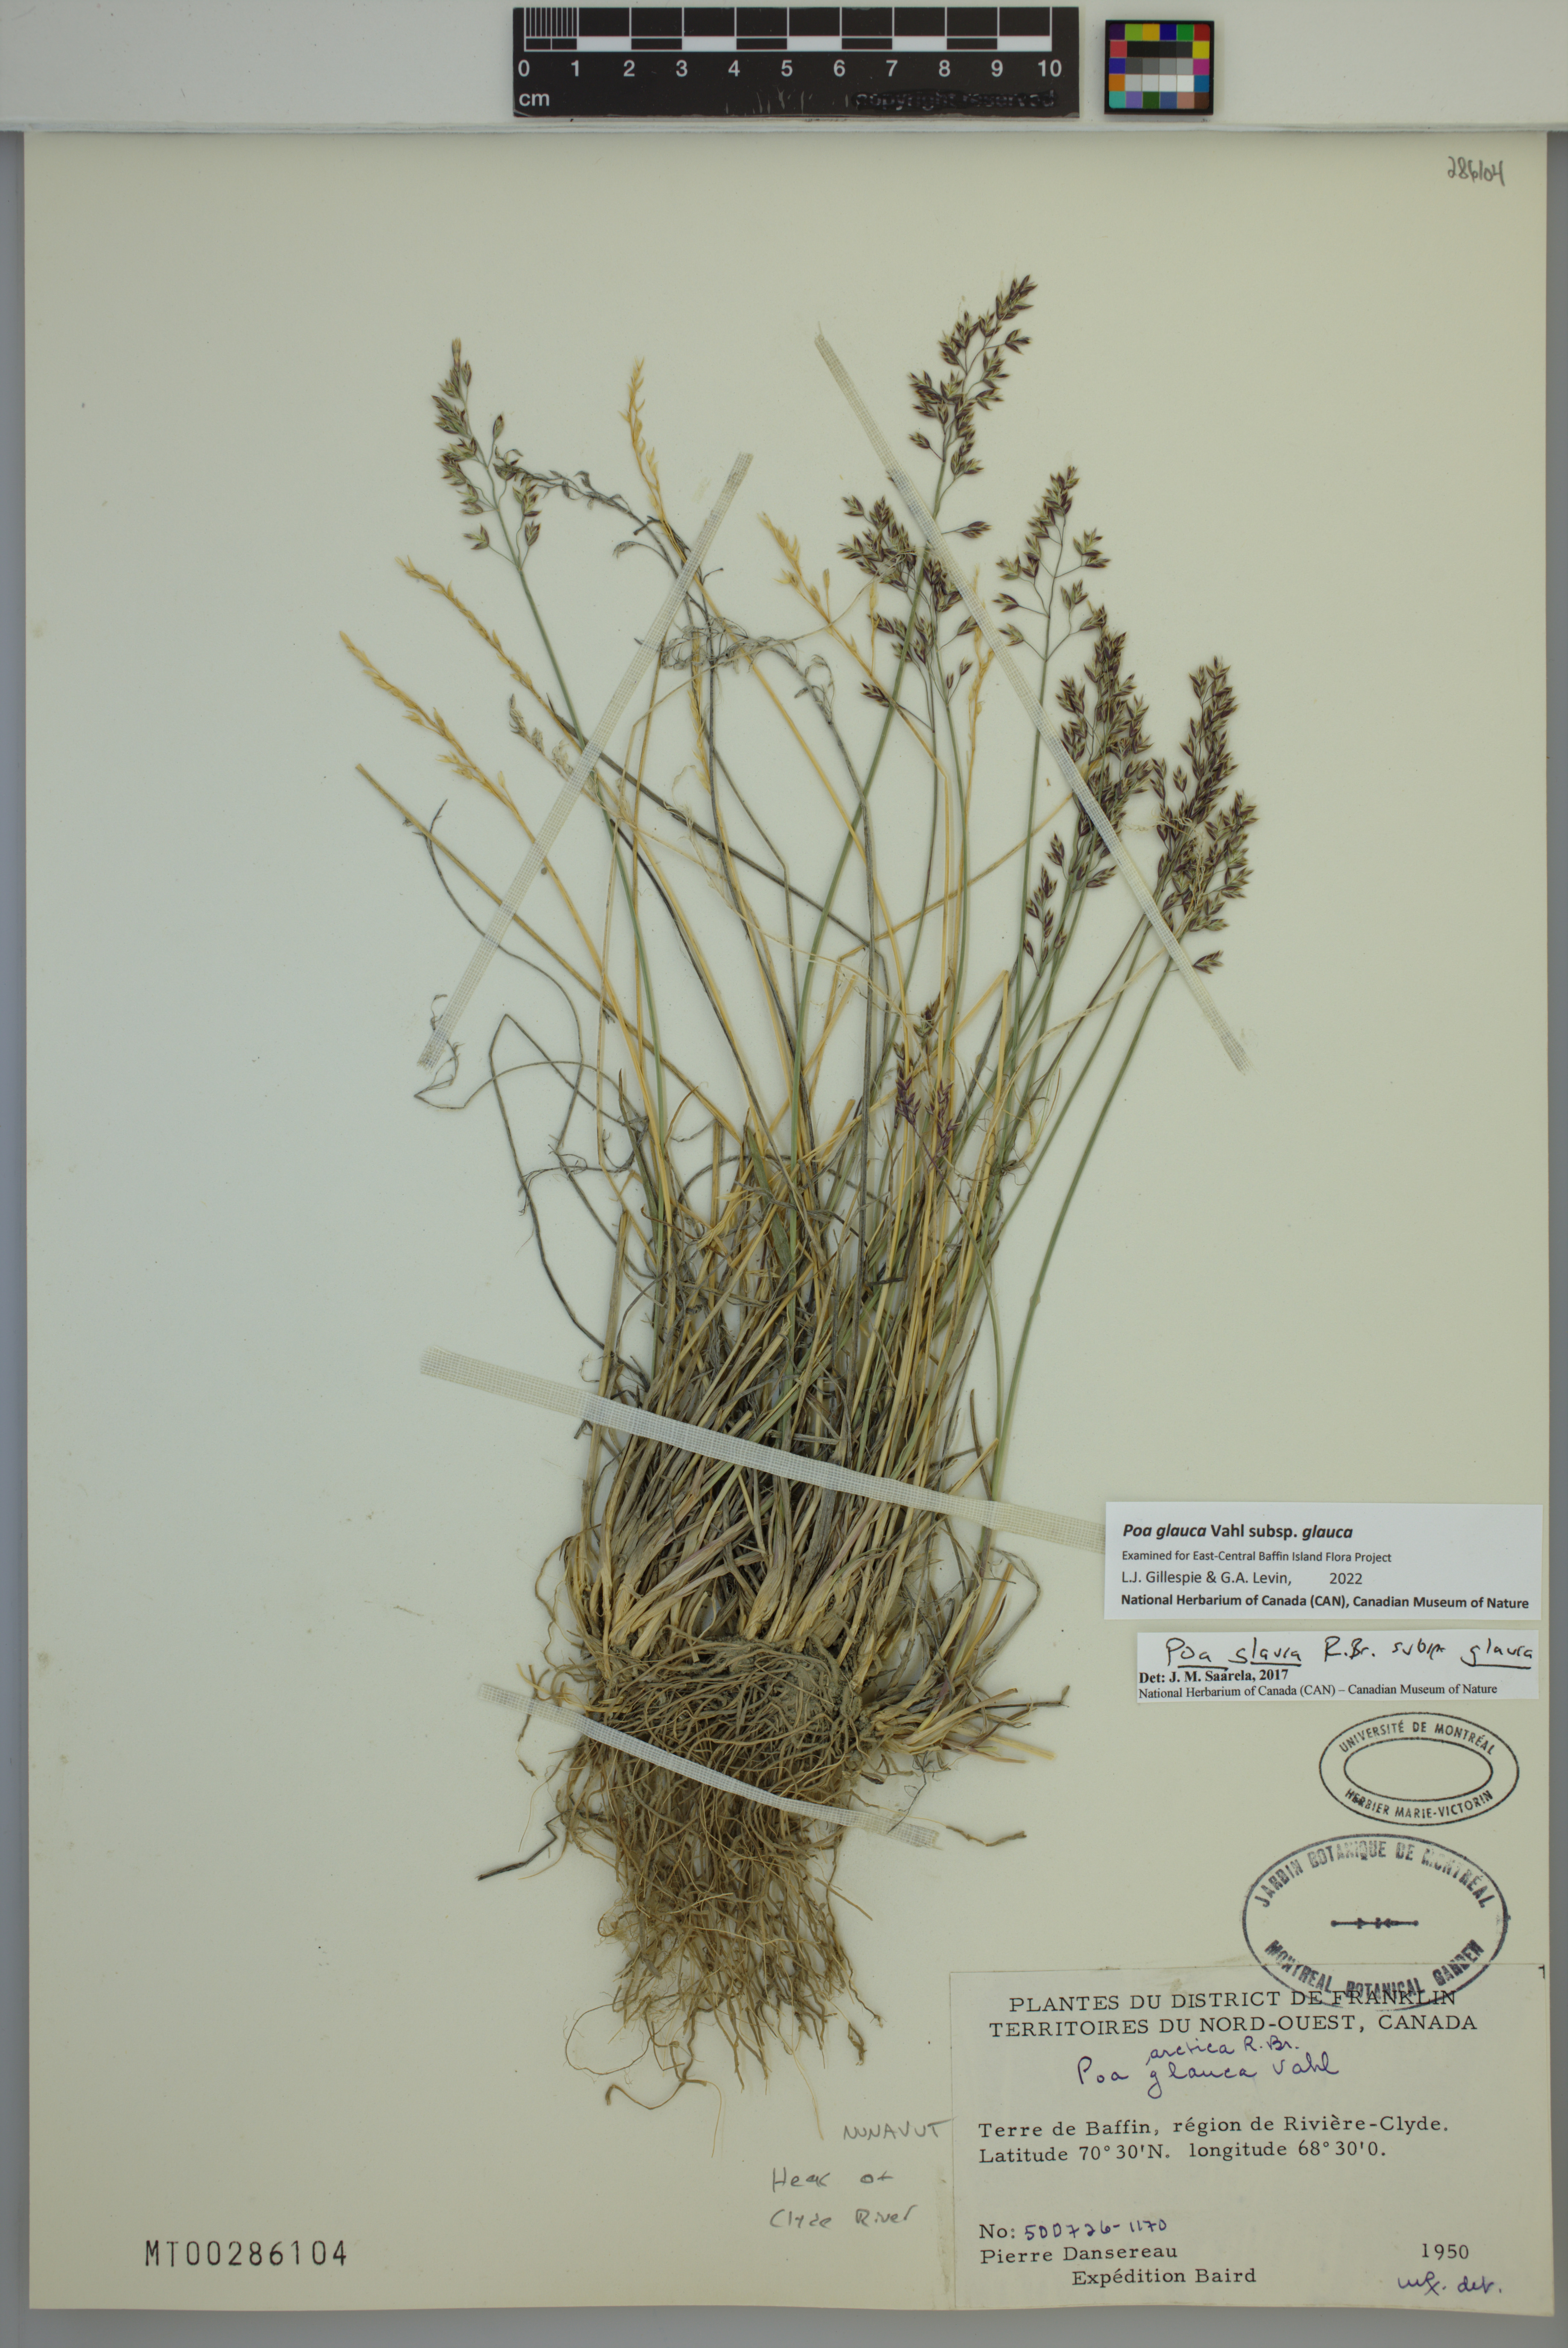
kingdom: Plantae
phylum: Tracheophyta
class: Liliopsida
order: Poales
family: Poaceae
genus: Poa
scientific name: Poa glauca
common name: Glaucous bluegrass
